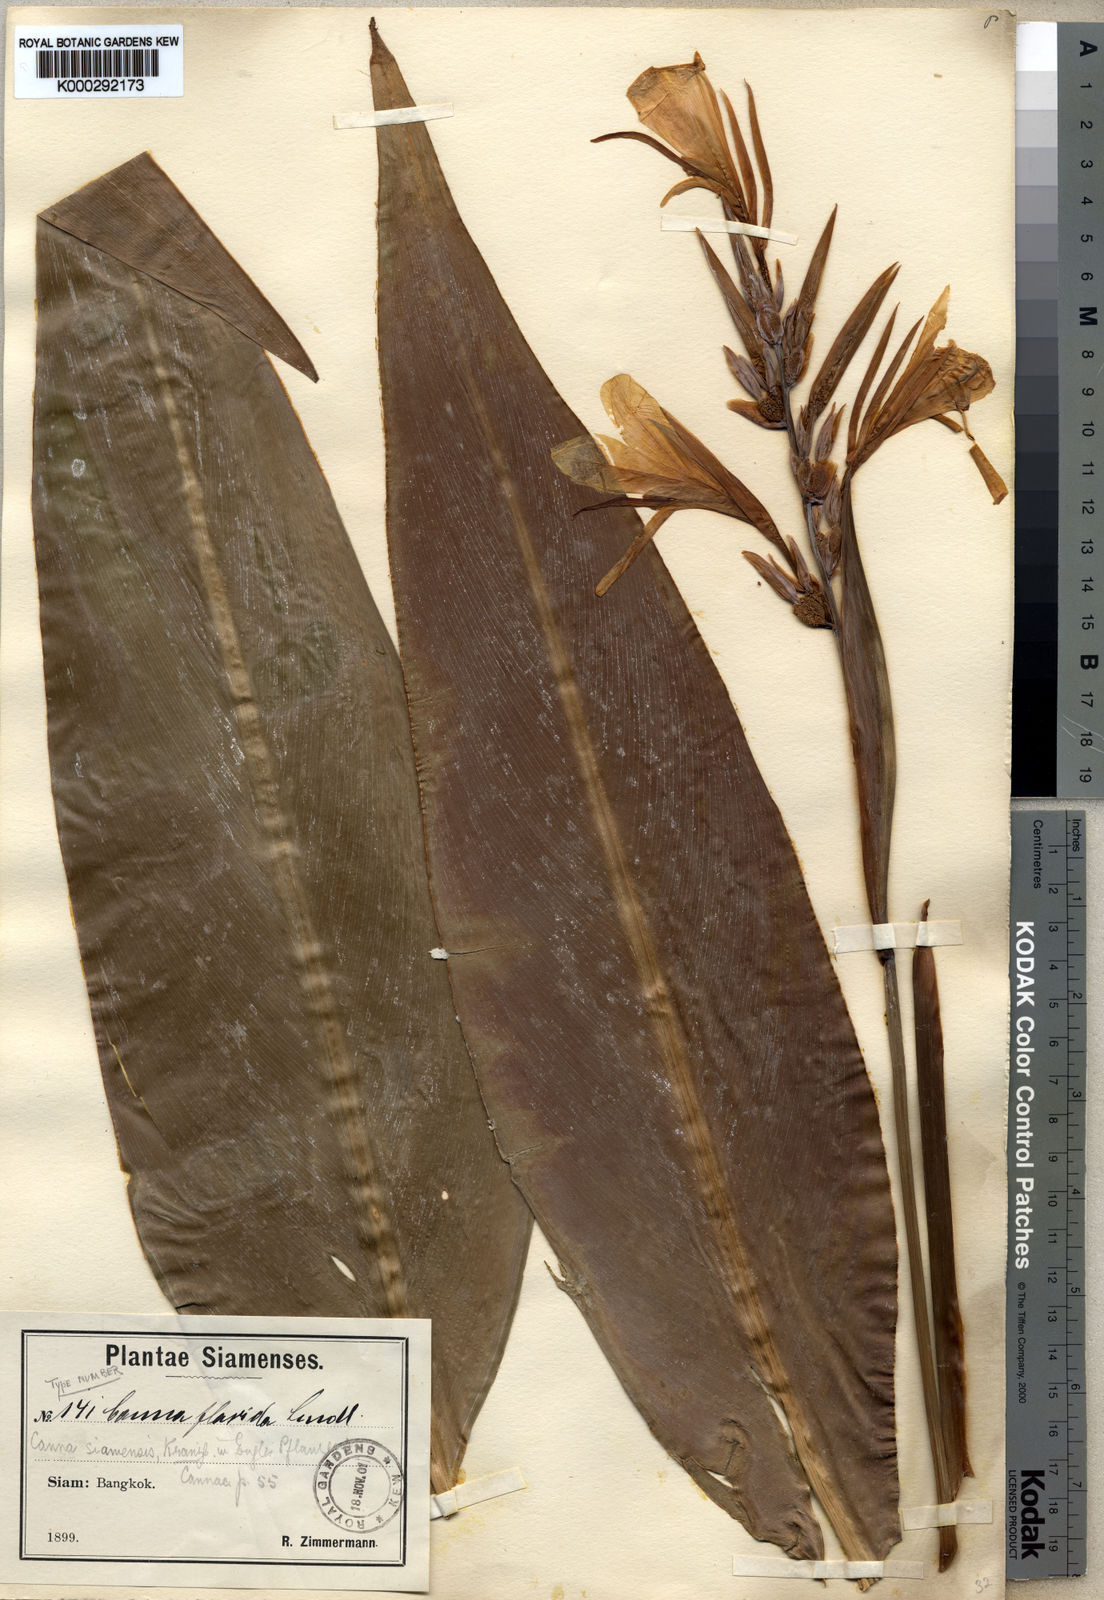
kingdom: Plantae
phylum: Tracheophyta
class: Liliopsida
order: Zingiberales
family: Cannaceae
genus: Canna
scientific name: Canna glauca
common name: Louisiana canna
